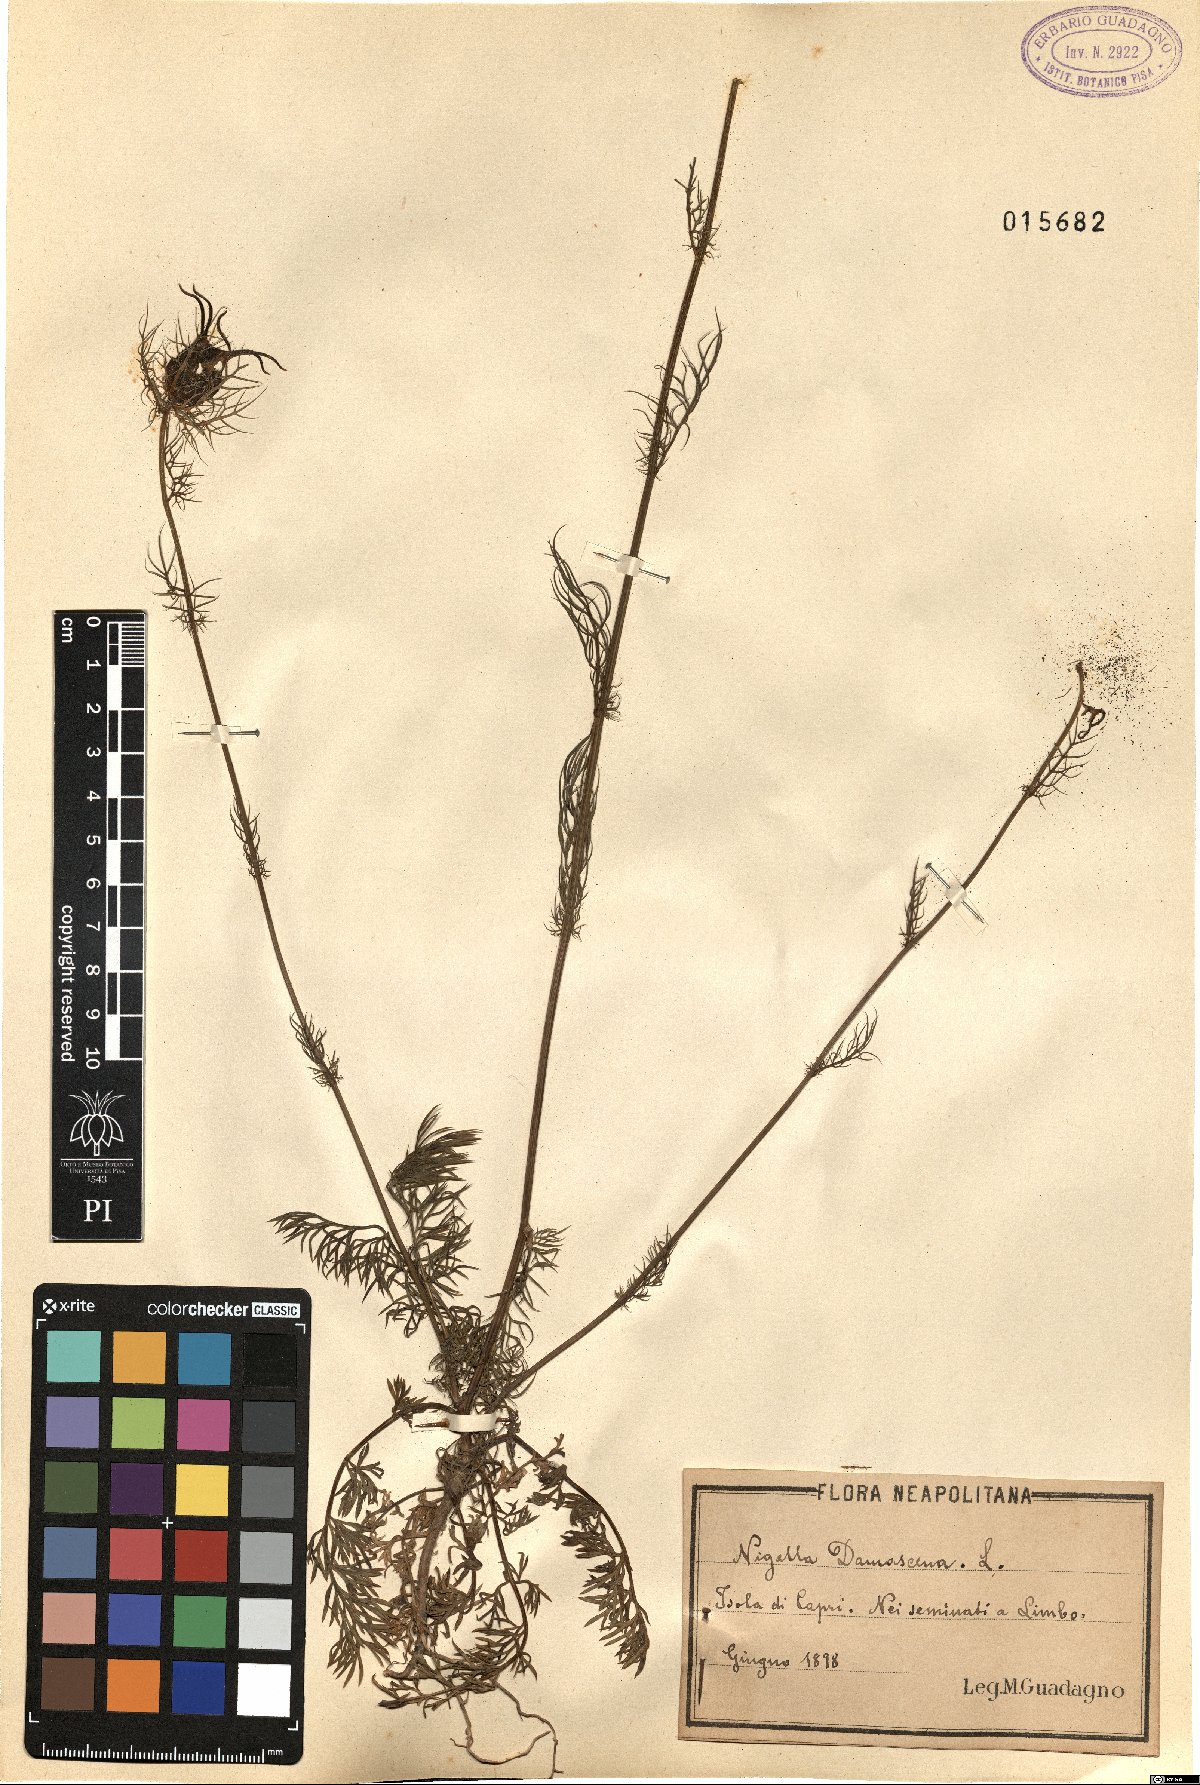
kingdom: Plantae
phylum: Tracheophyta
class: Magnoliopsida
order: Ranunculales
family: Ranunculaceae
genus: Nigella
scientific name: Nigella damascena
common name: Love-in-a-mist
